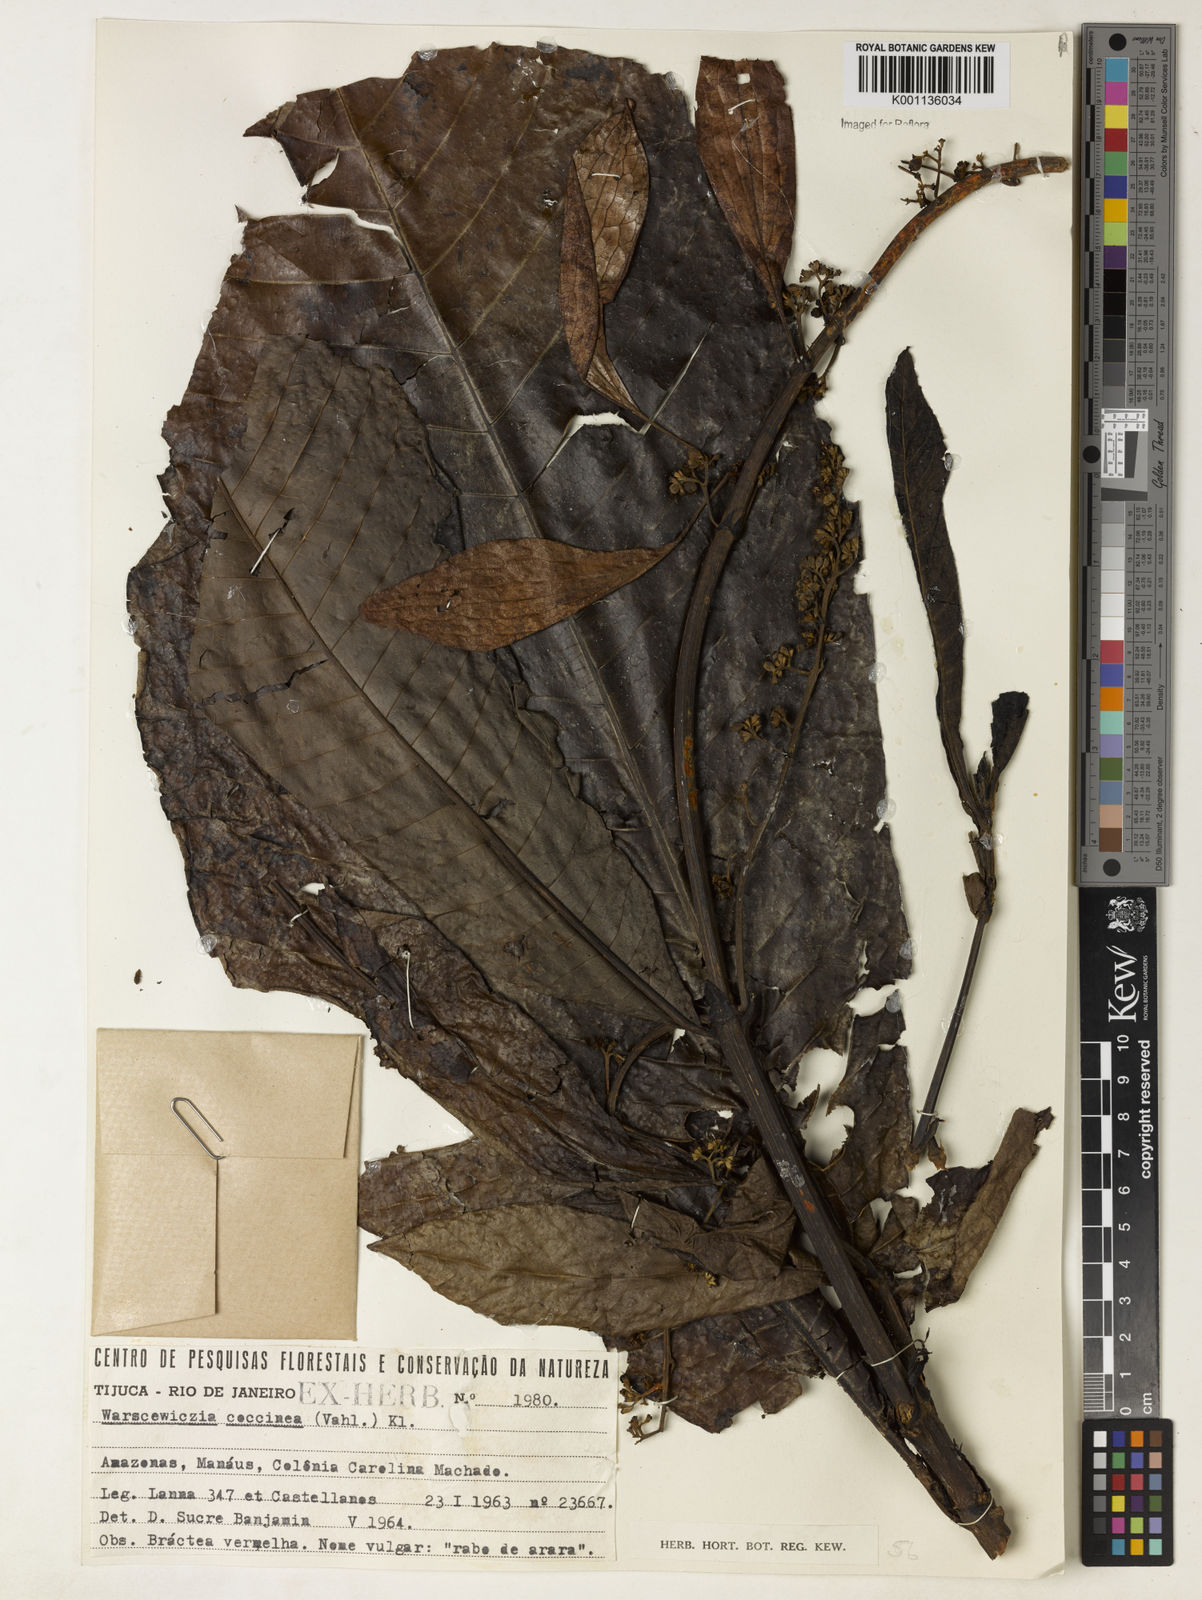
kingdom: Plantae
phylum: Tracheophyta
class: Magnoliopsida
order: Gentianales
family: Rubiaceae
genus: Warszewiczia
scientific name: Warszewiczia coccinea
